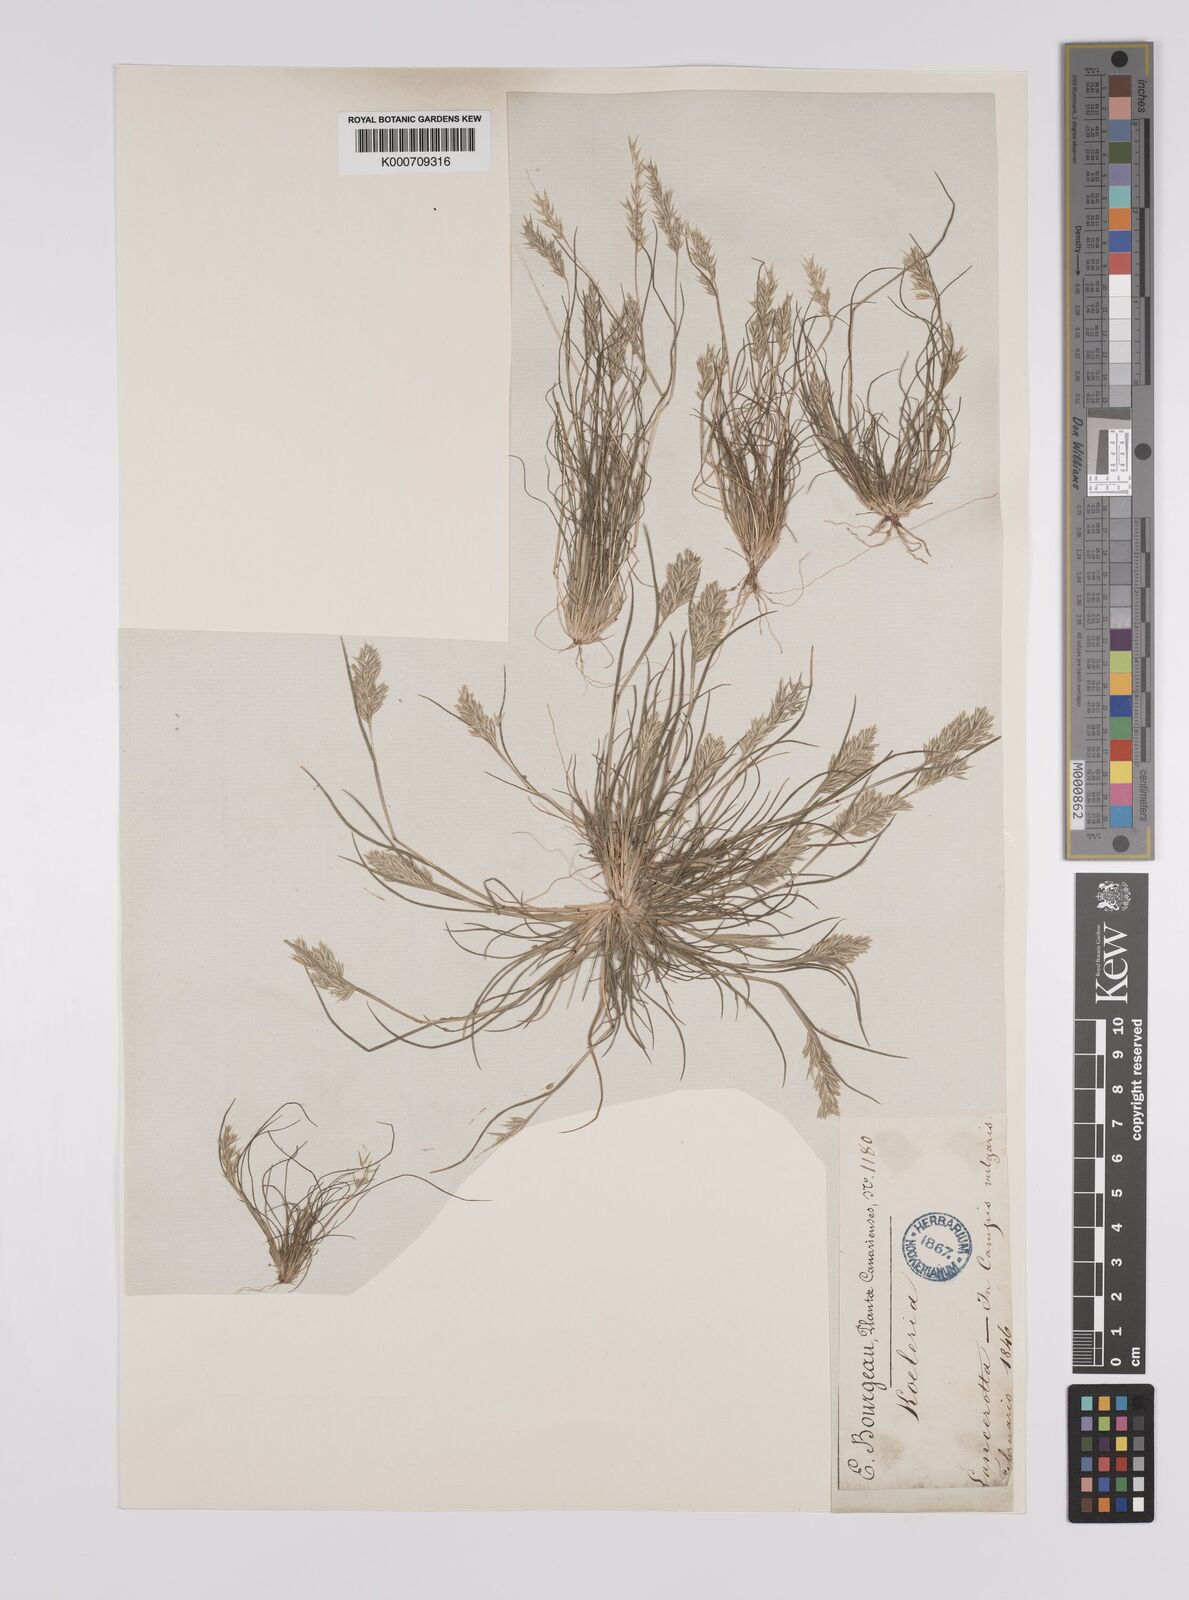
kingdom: Plantae
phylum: Tracheophyta
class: Liliopsida
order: Poales
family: Poaceae
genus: Schismus
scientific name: Schismus barbatus
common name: Kelch-grass
